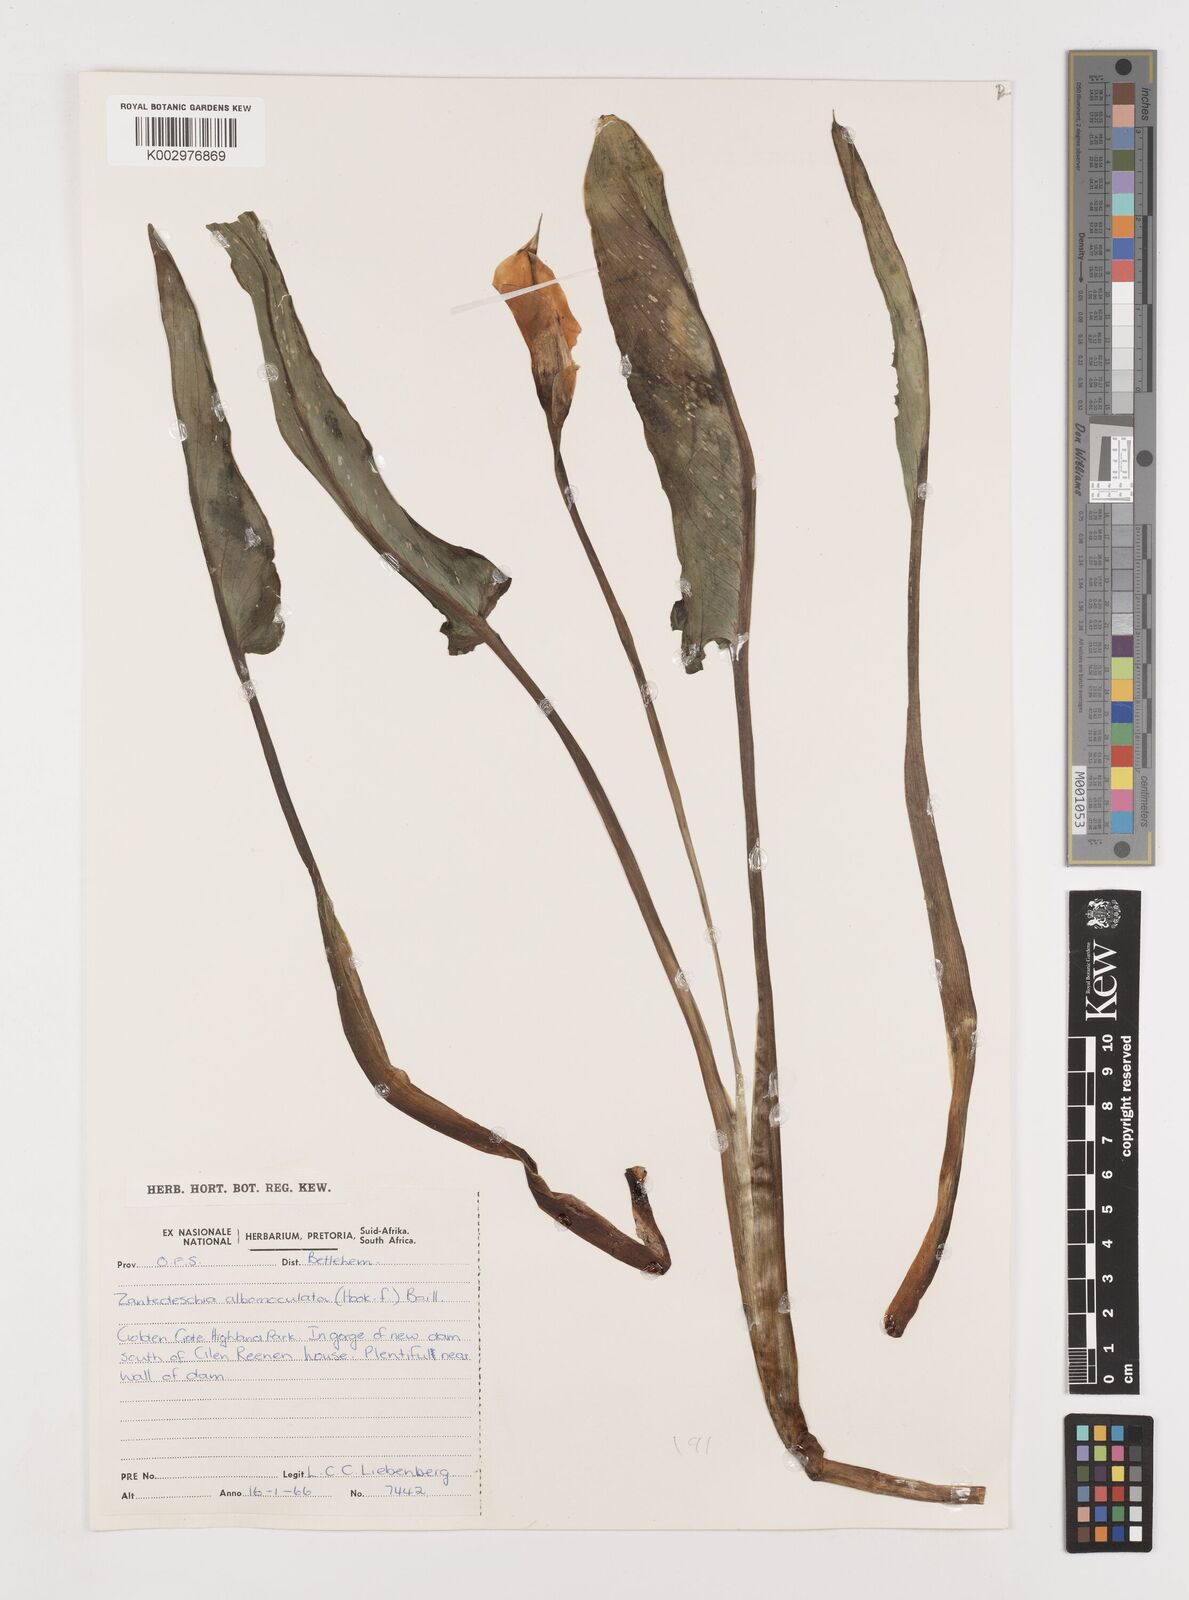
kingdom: Plantae
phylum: Tracheophyta
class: Liliopsida
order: Alismatales
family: Araceae
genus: Zantedeschia
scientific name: Zantedeschia albomaculata
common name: Spotted calla lily
